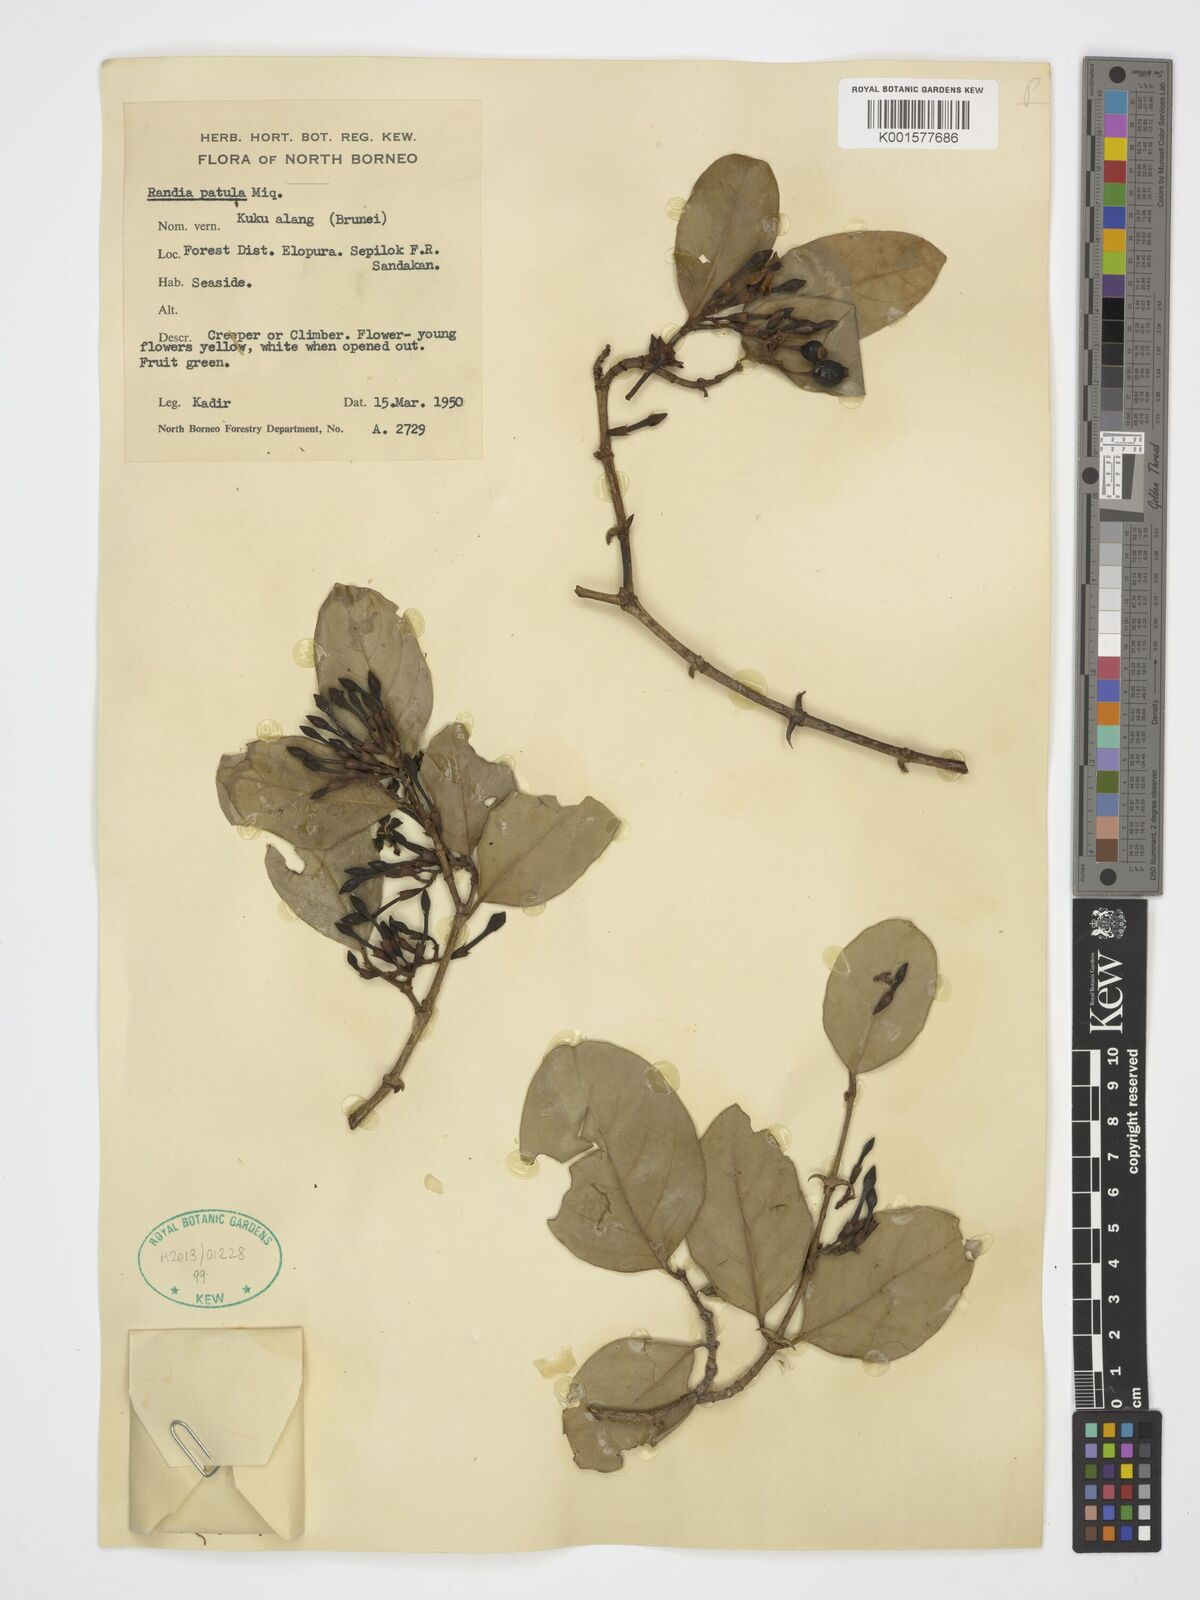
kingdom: Plantae
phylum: Tracheophyta
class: Magnoliopsida
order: Gentianales
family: Rubiaceae
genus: Oxyceros
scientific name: Oxyceros patulus
